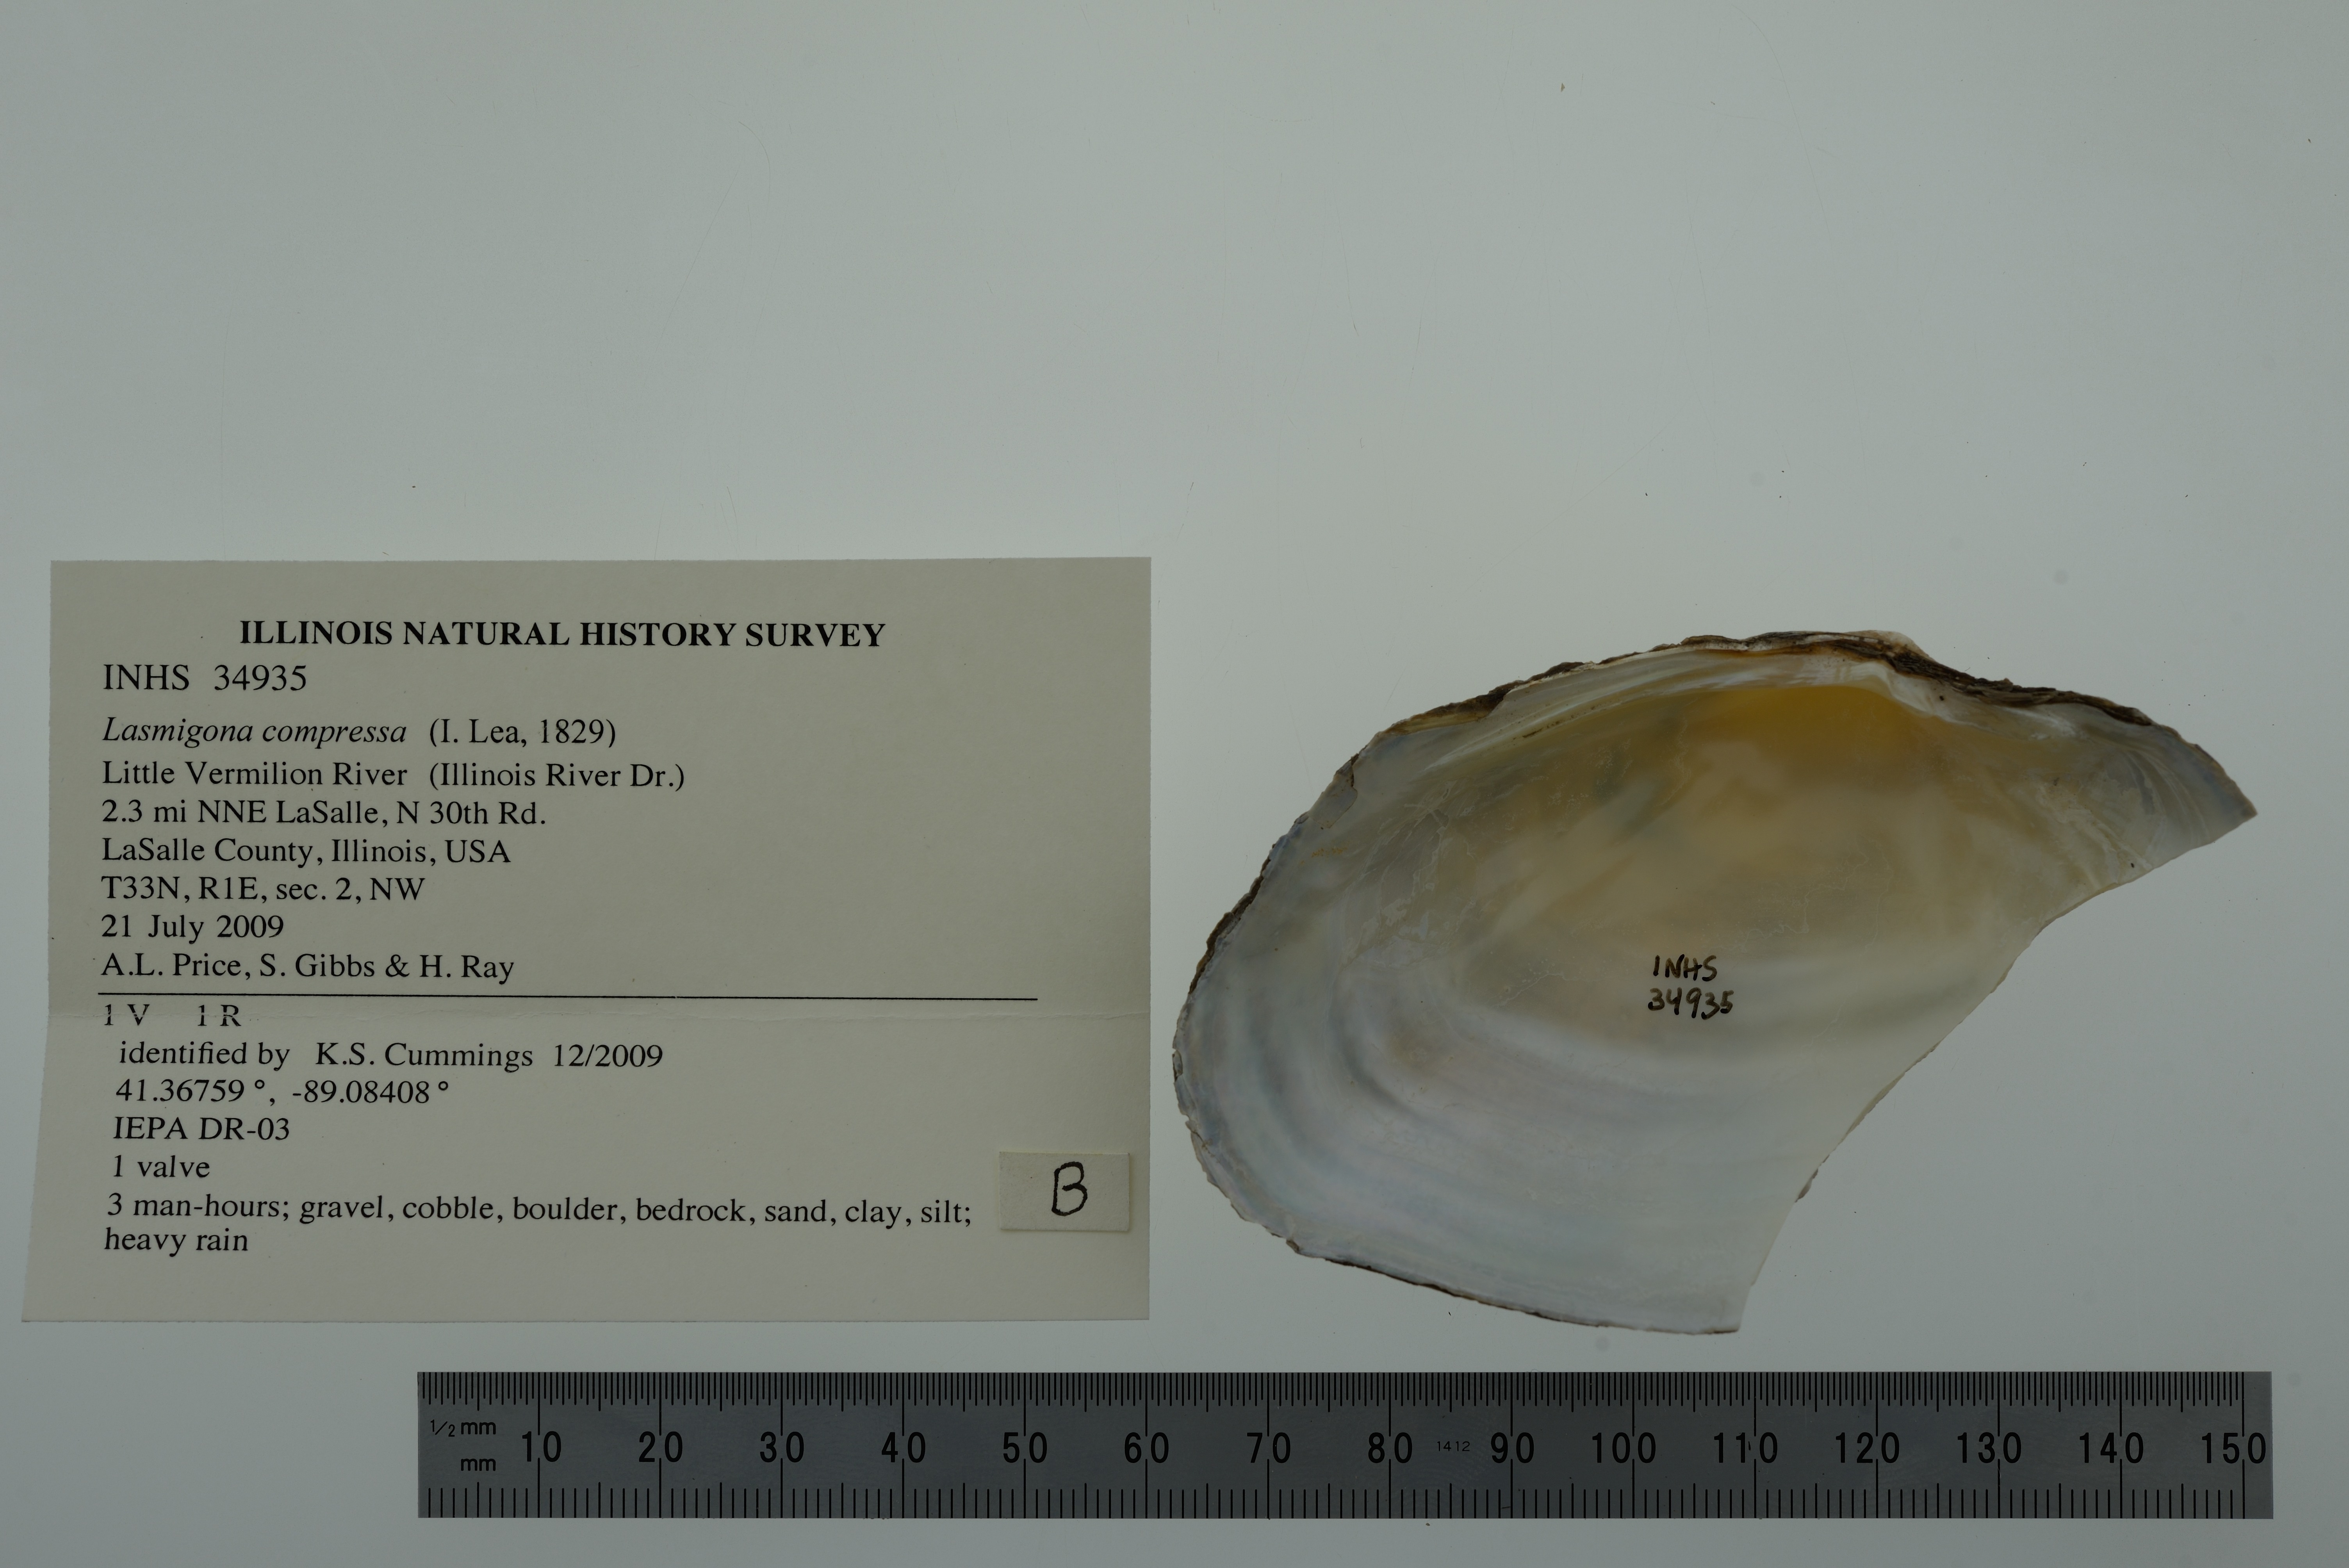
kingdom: Animalia
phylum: Mollusca
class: Bivalvia
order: Unionida
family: Unionidae
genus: Lasmigona
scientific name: Lasmigona compressa
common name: Creek heelsplitter
